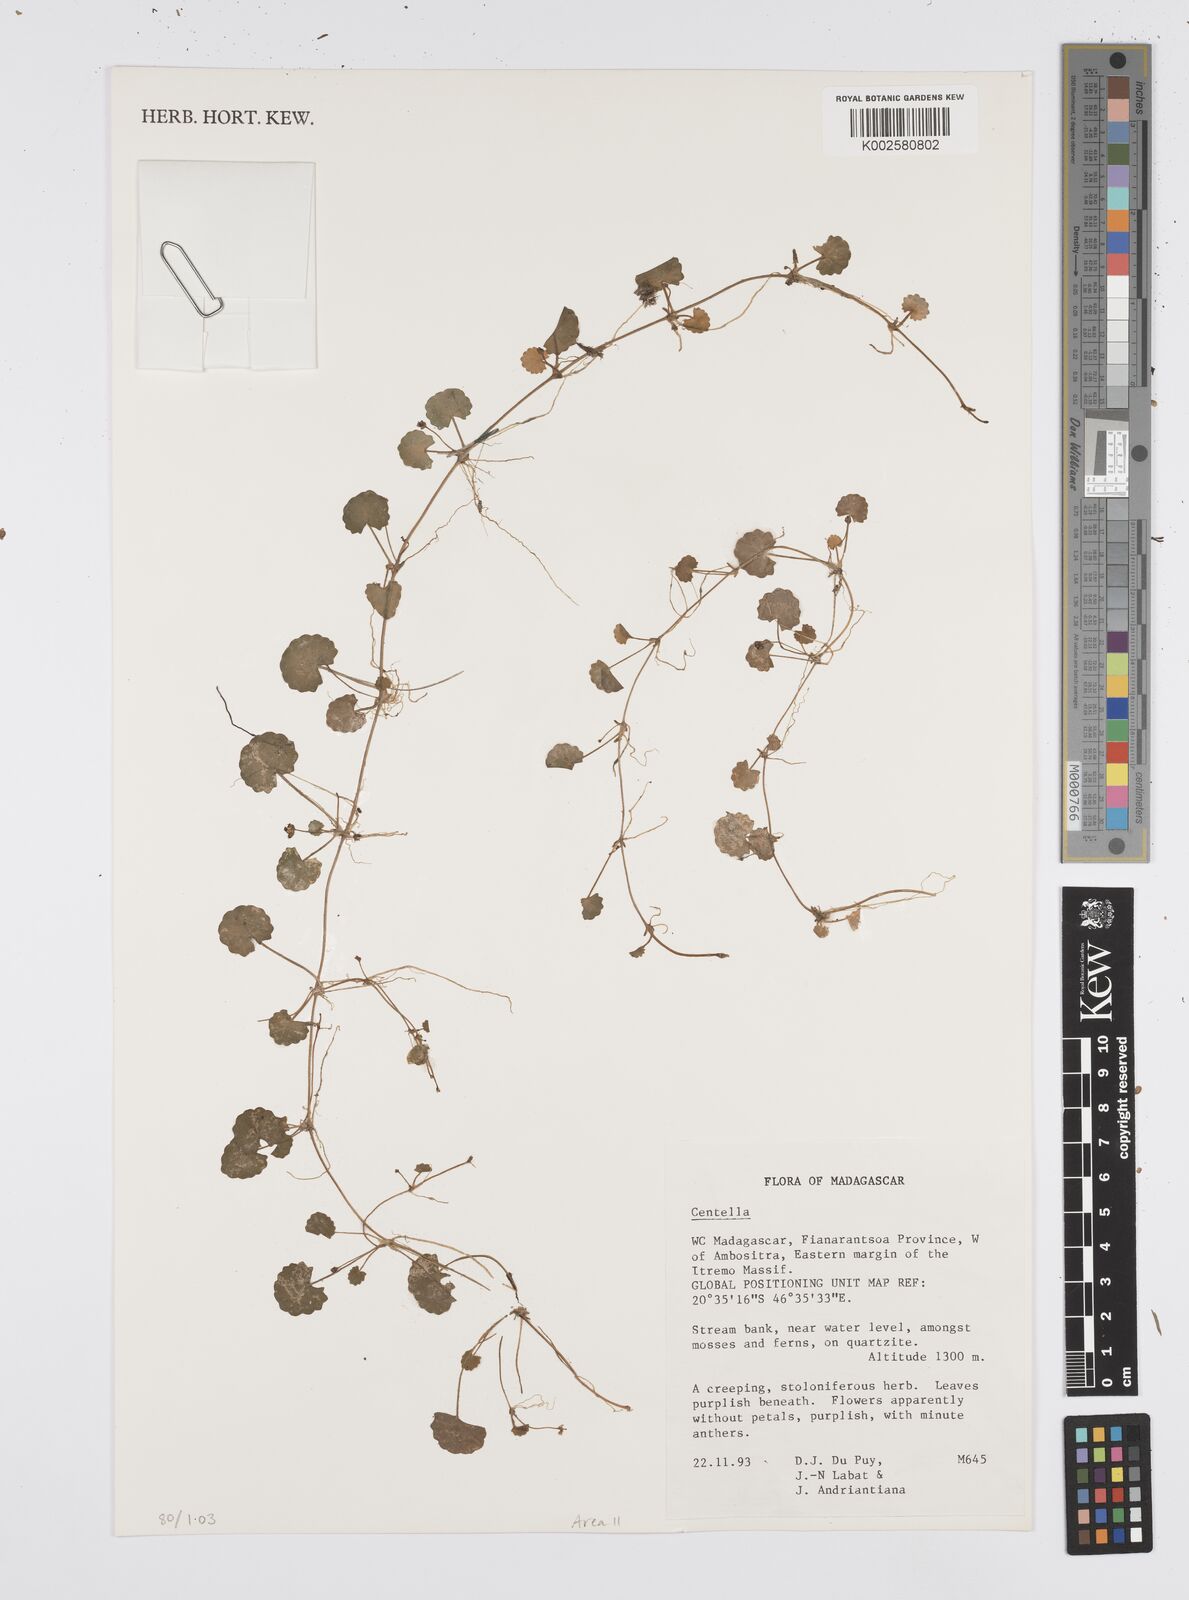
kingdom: Plantae
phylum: Tracheophyta
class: Magnoliopsida
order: Apiales
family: Apiaceae
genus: Centella
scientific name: Centella
